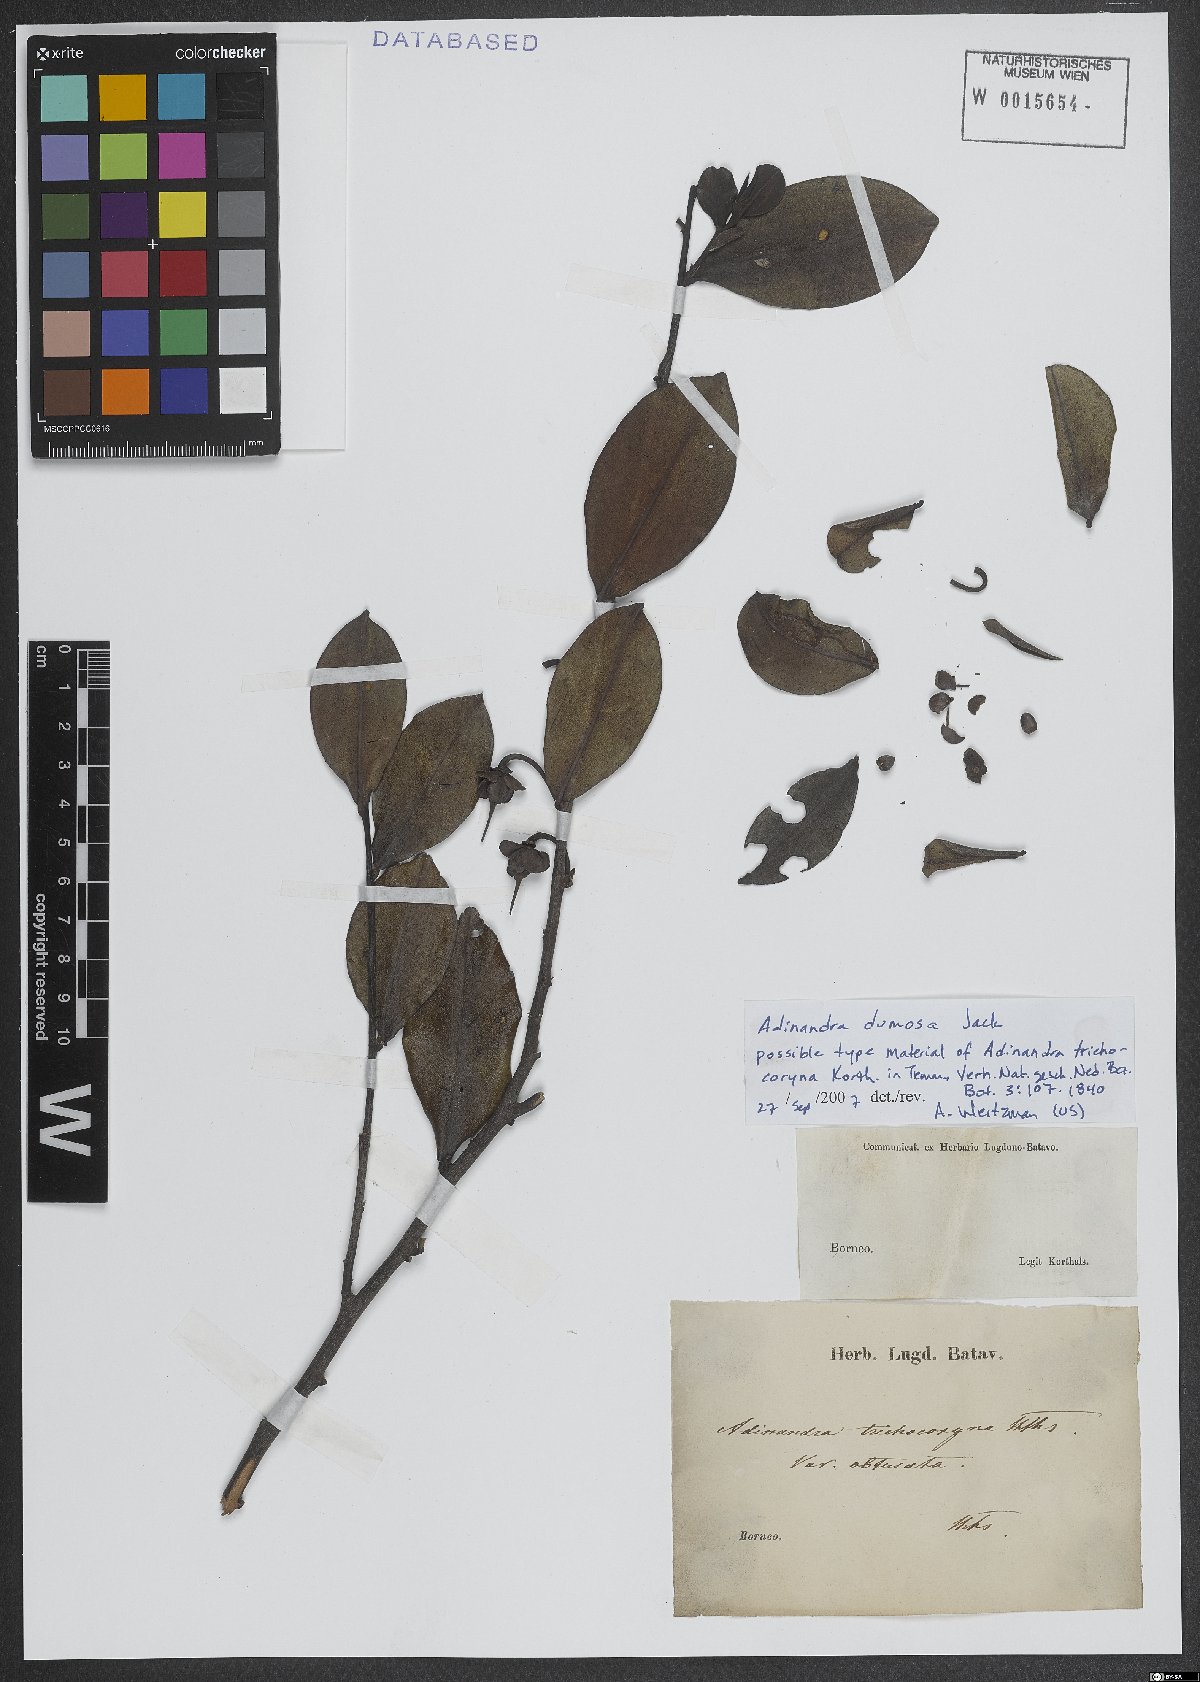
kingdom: Plantae
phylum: Tracheophyta
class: Magnoliopsida
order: Ericales
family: Pentaphylacaceae
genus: Adinandra
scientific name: Adinandra dumosa
